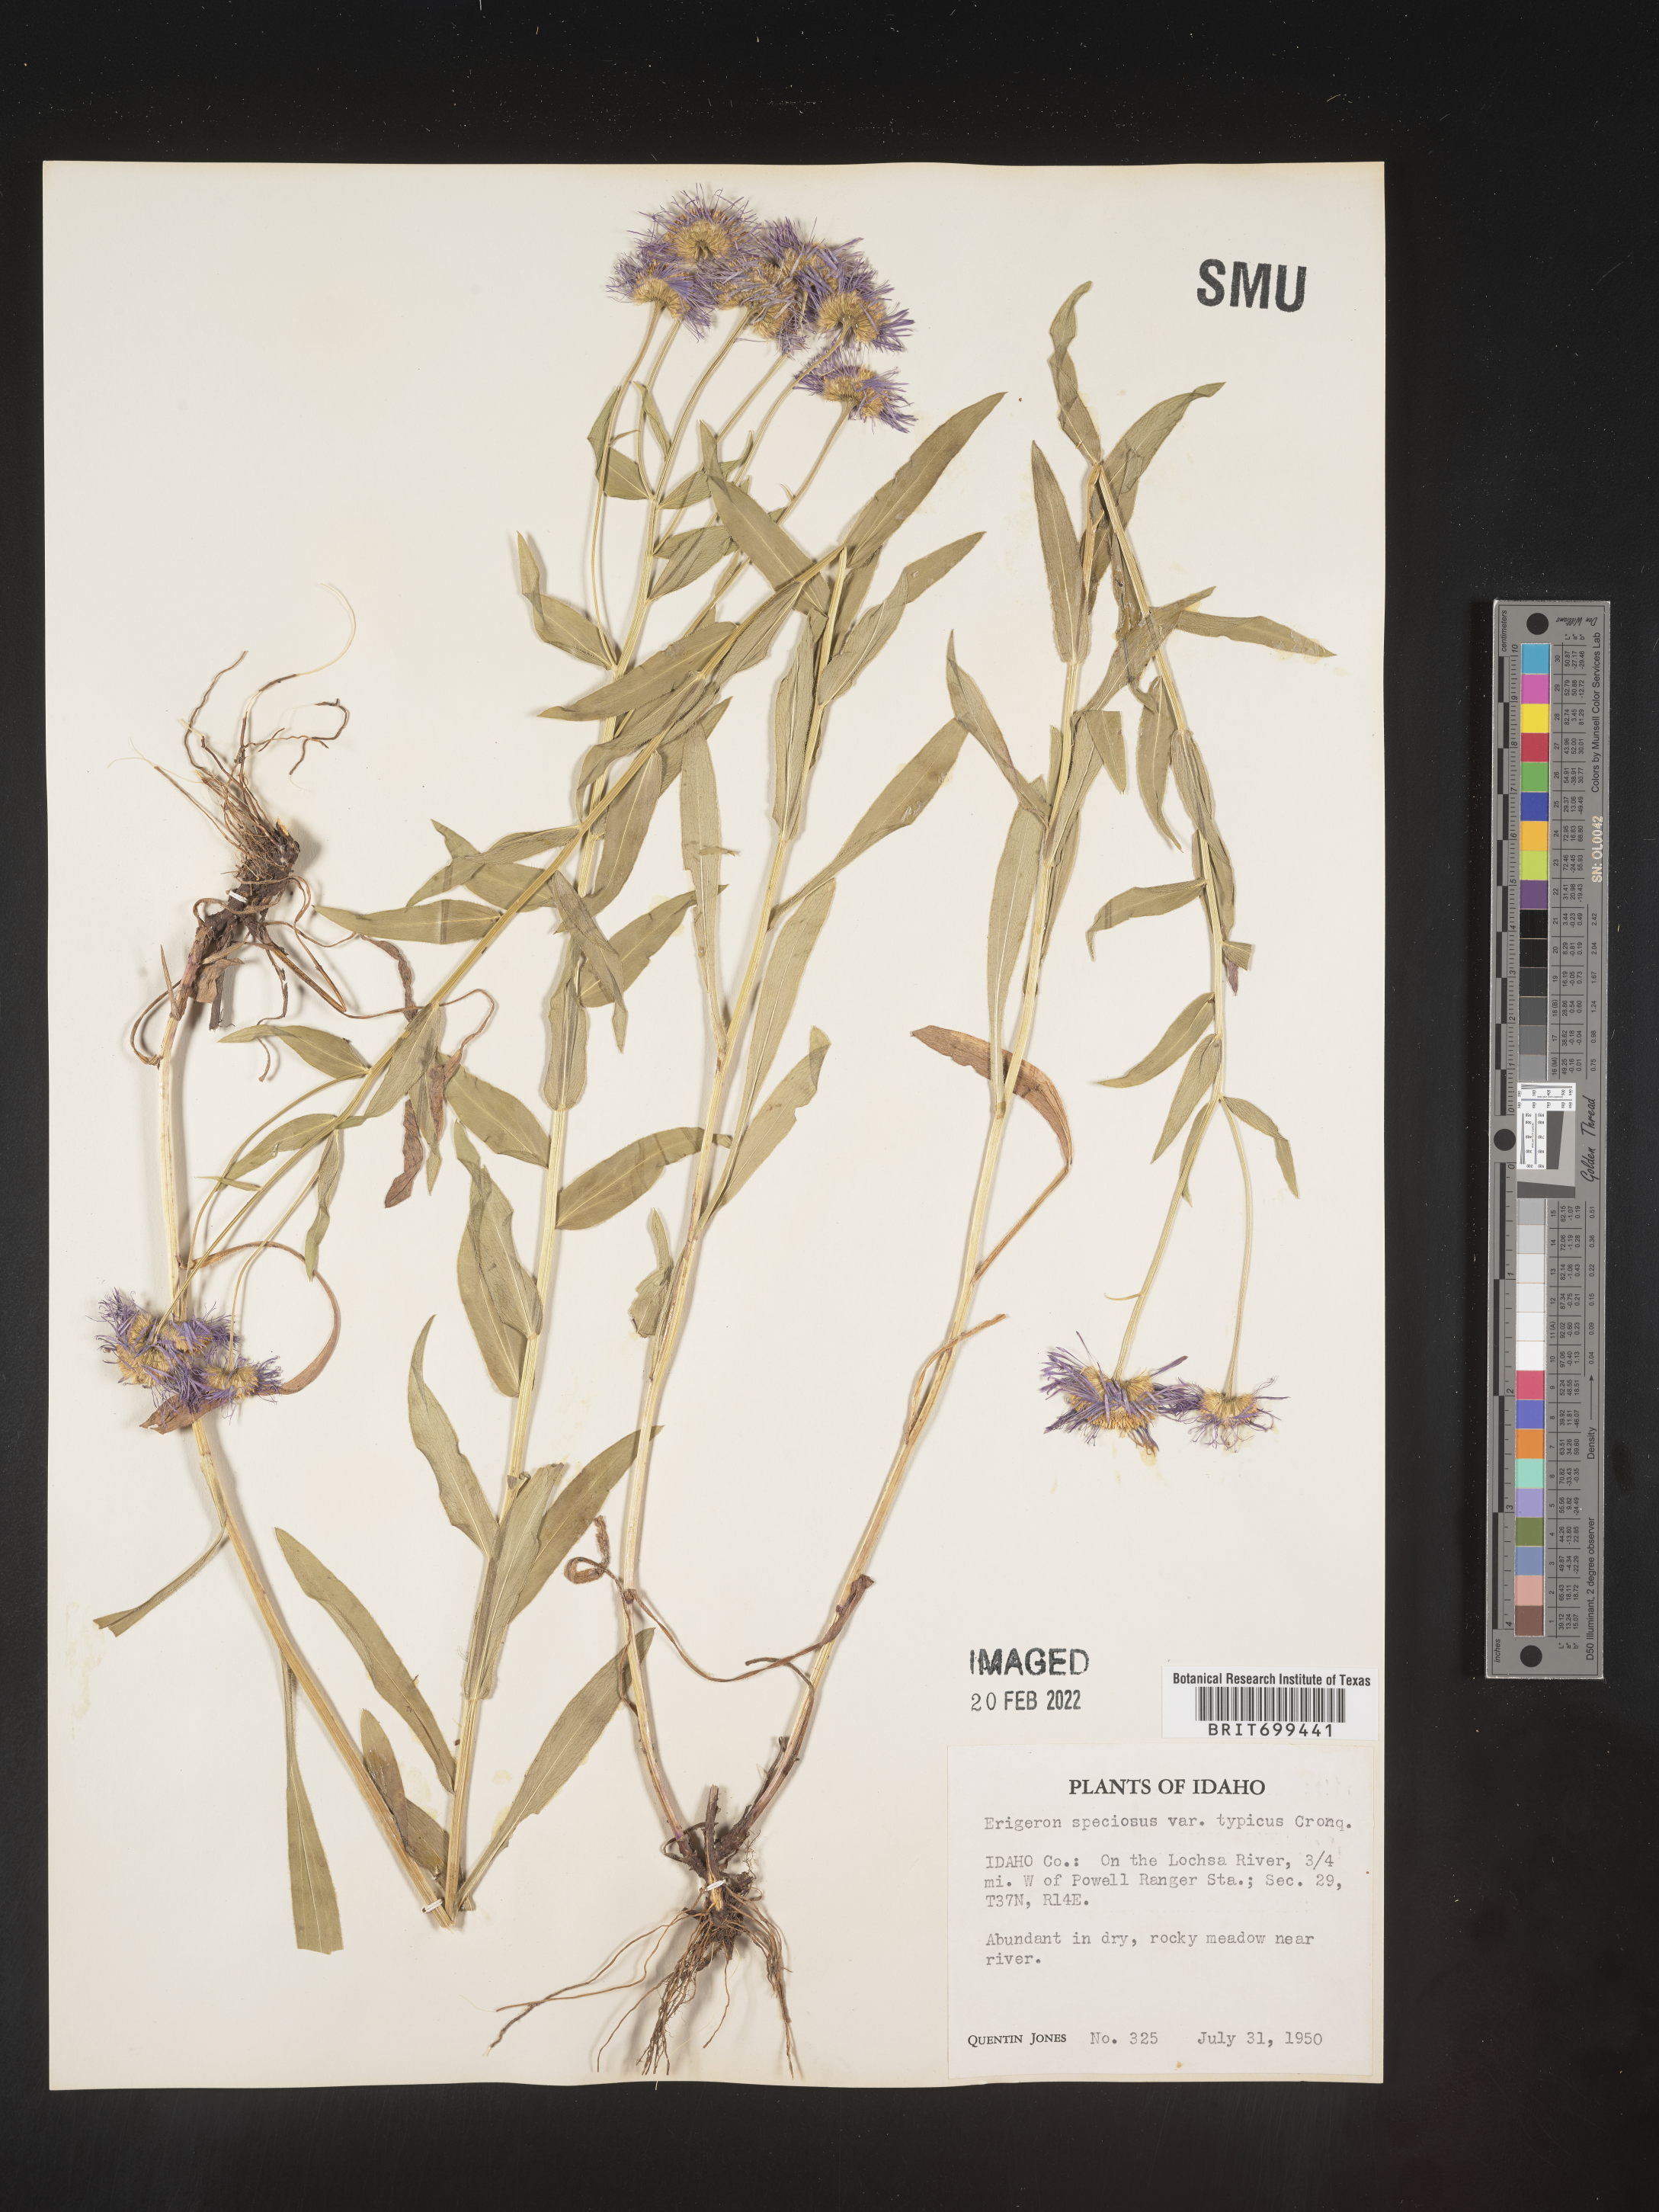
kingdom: Plantae
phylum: Tracheophyta
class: Magnoliopsida
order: Asterales
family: Asteraceae
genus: Erigeron
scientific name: Erigeron speciosus
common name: Aspen fleabane
